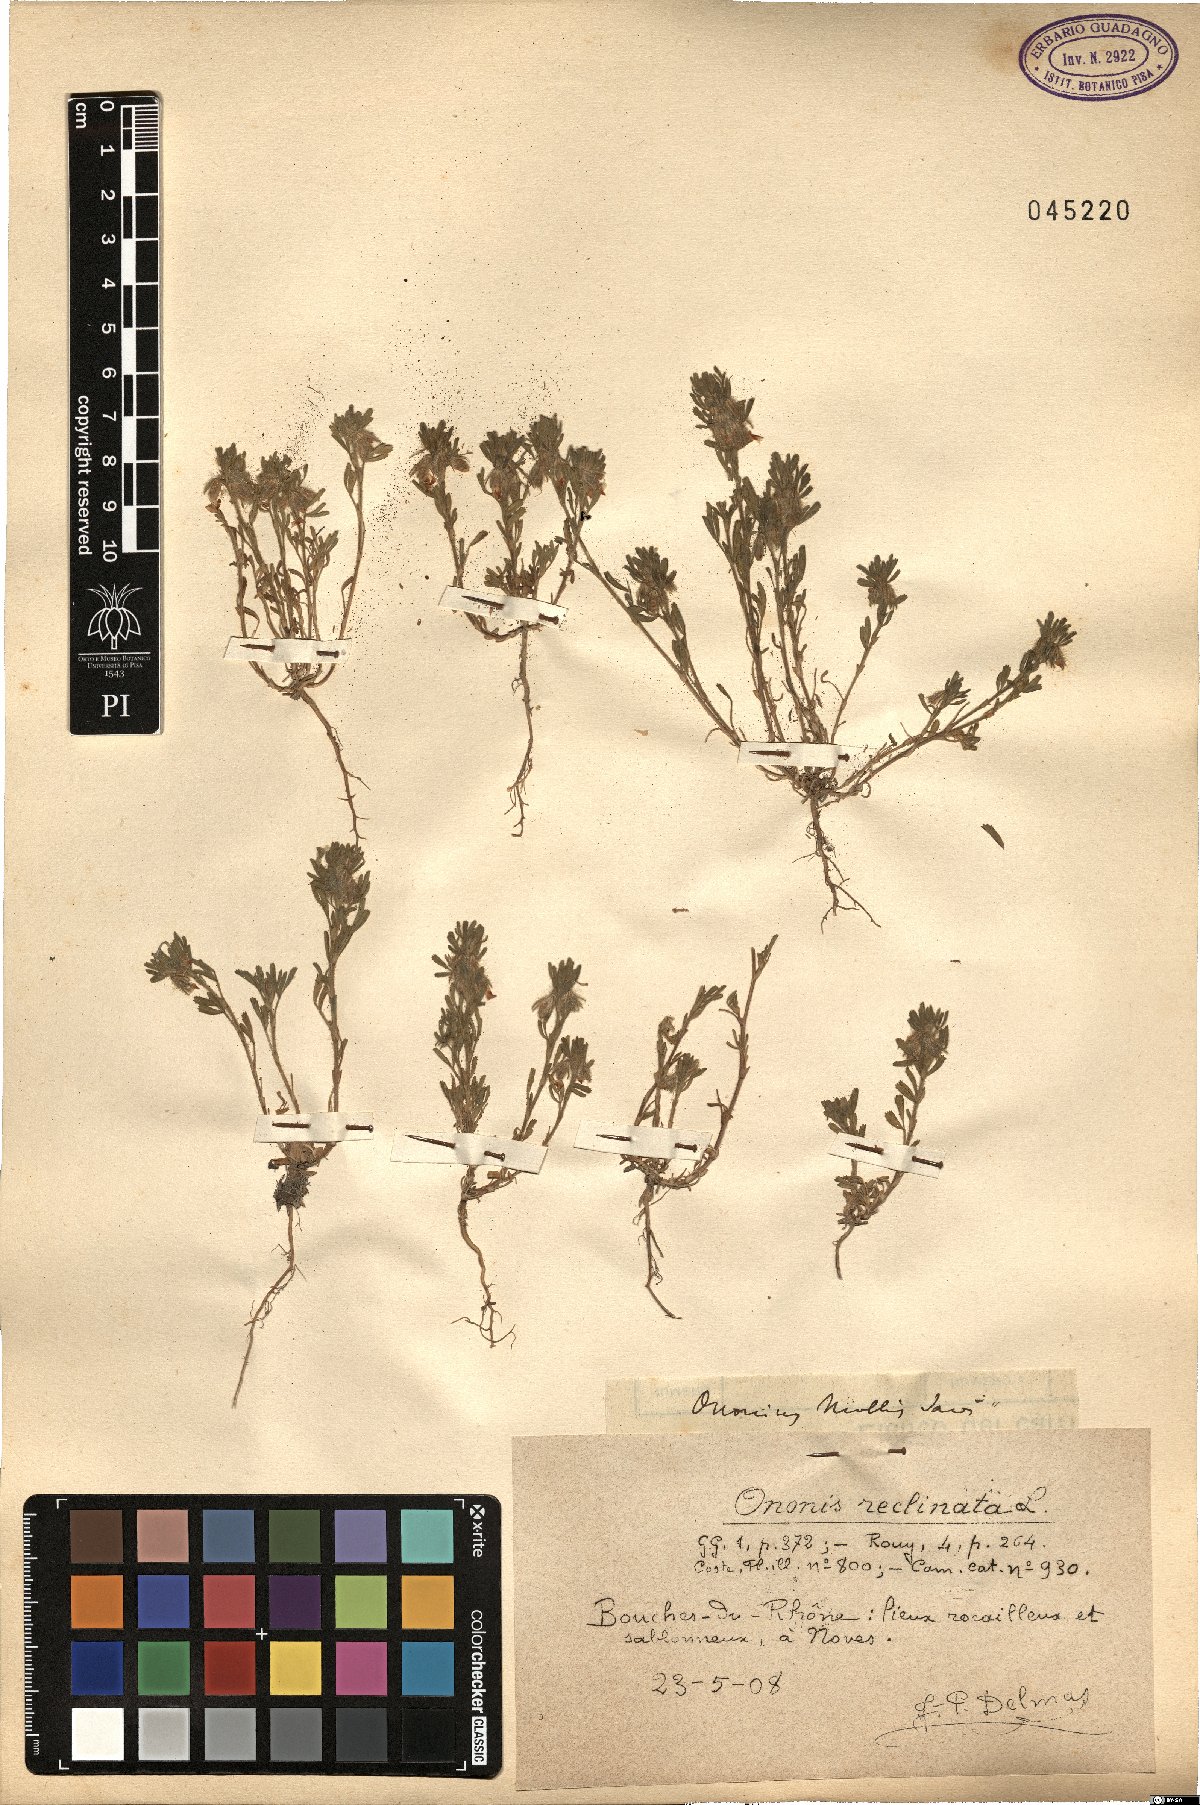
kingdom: Plantae
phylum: Tracheophyta
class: Magnoliopsida
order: Fabales
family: Fabaceae
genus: Ononis
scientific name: Ononis reclinata
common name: Small restharrow
